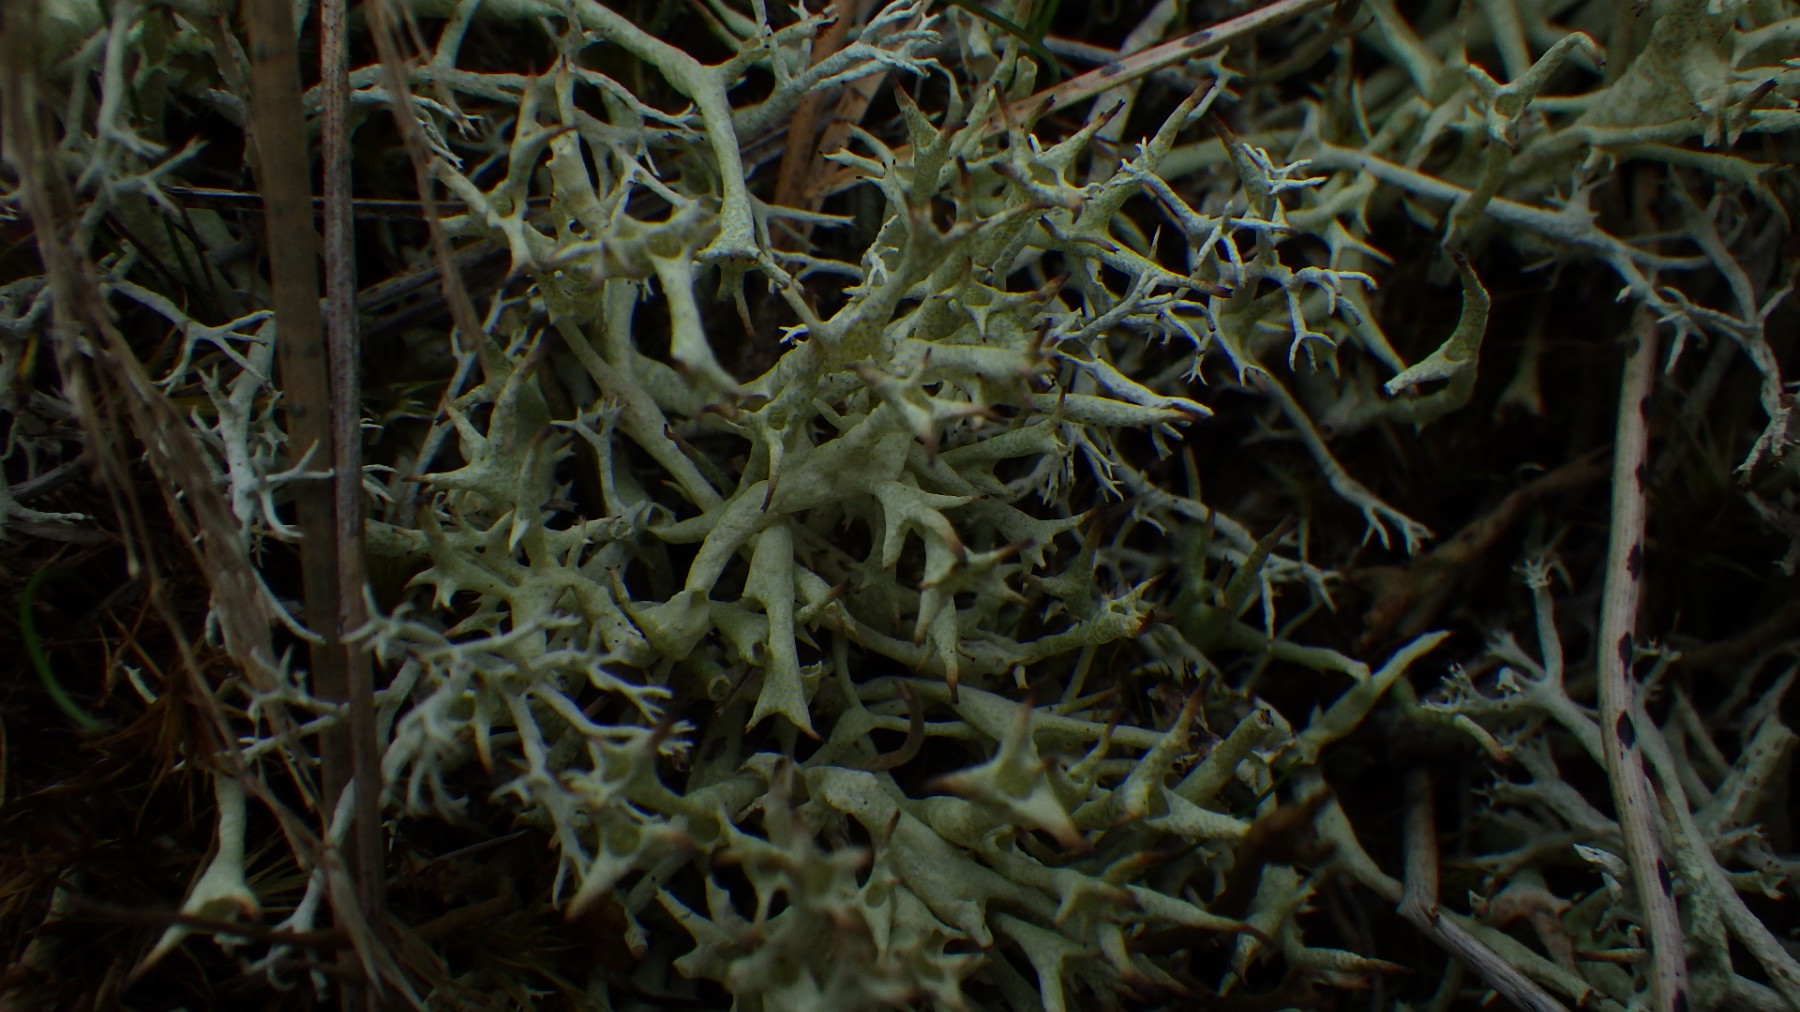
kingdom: Fungi
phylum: Ascomycota
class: Lecanoromycetes
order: Lecanorales
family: Cladoniaceae
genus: Cladonia
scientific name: Cladonia uncialis
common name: pigget bægerlav
